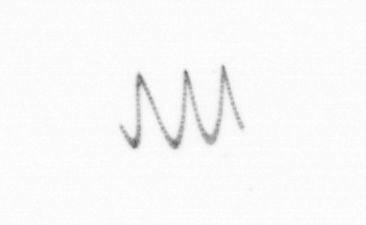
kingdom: Chromista
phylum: Ochrophyta
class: Bacillariophyceae
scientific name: Bacillariophyceae
